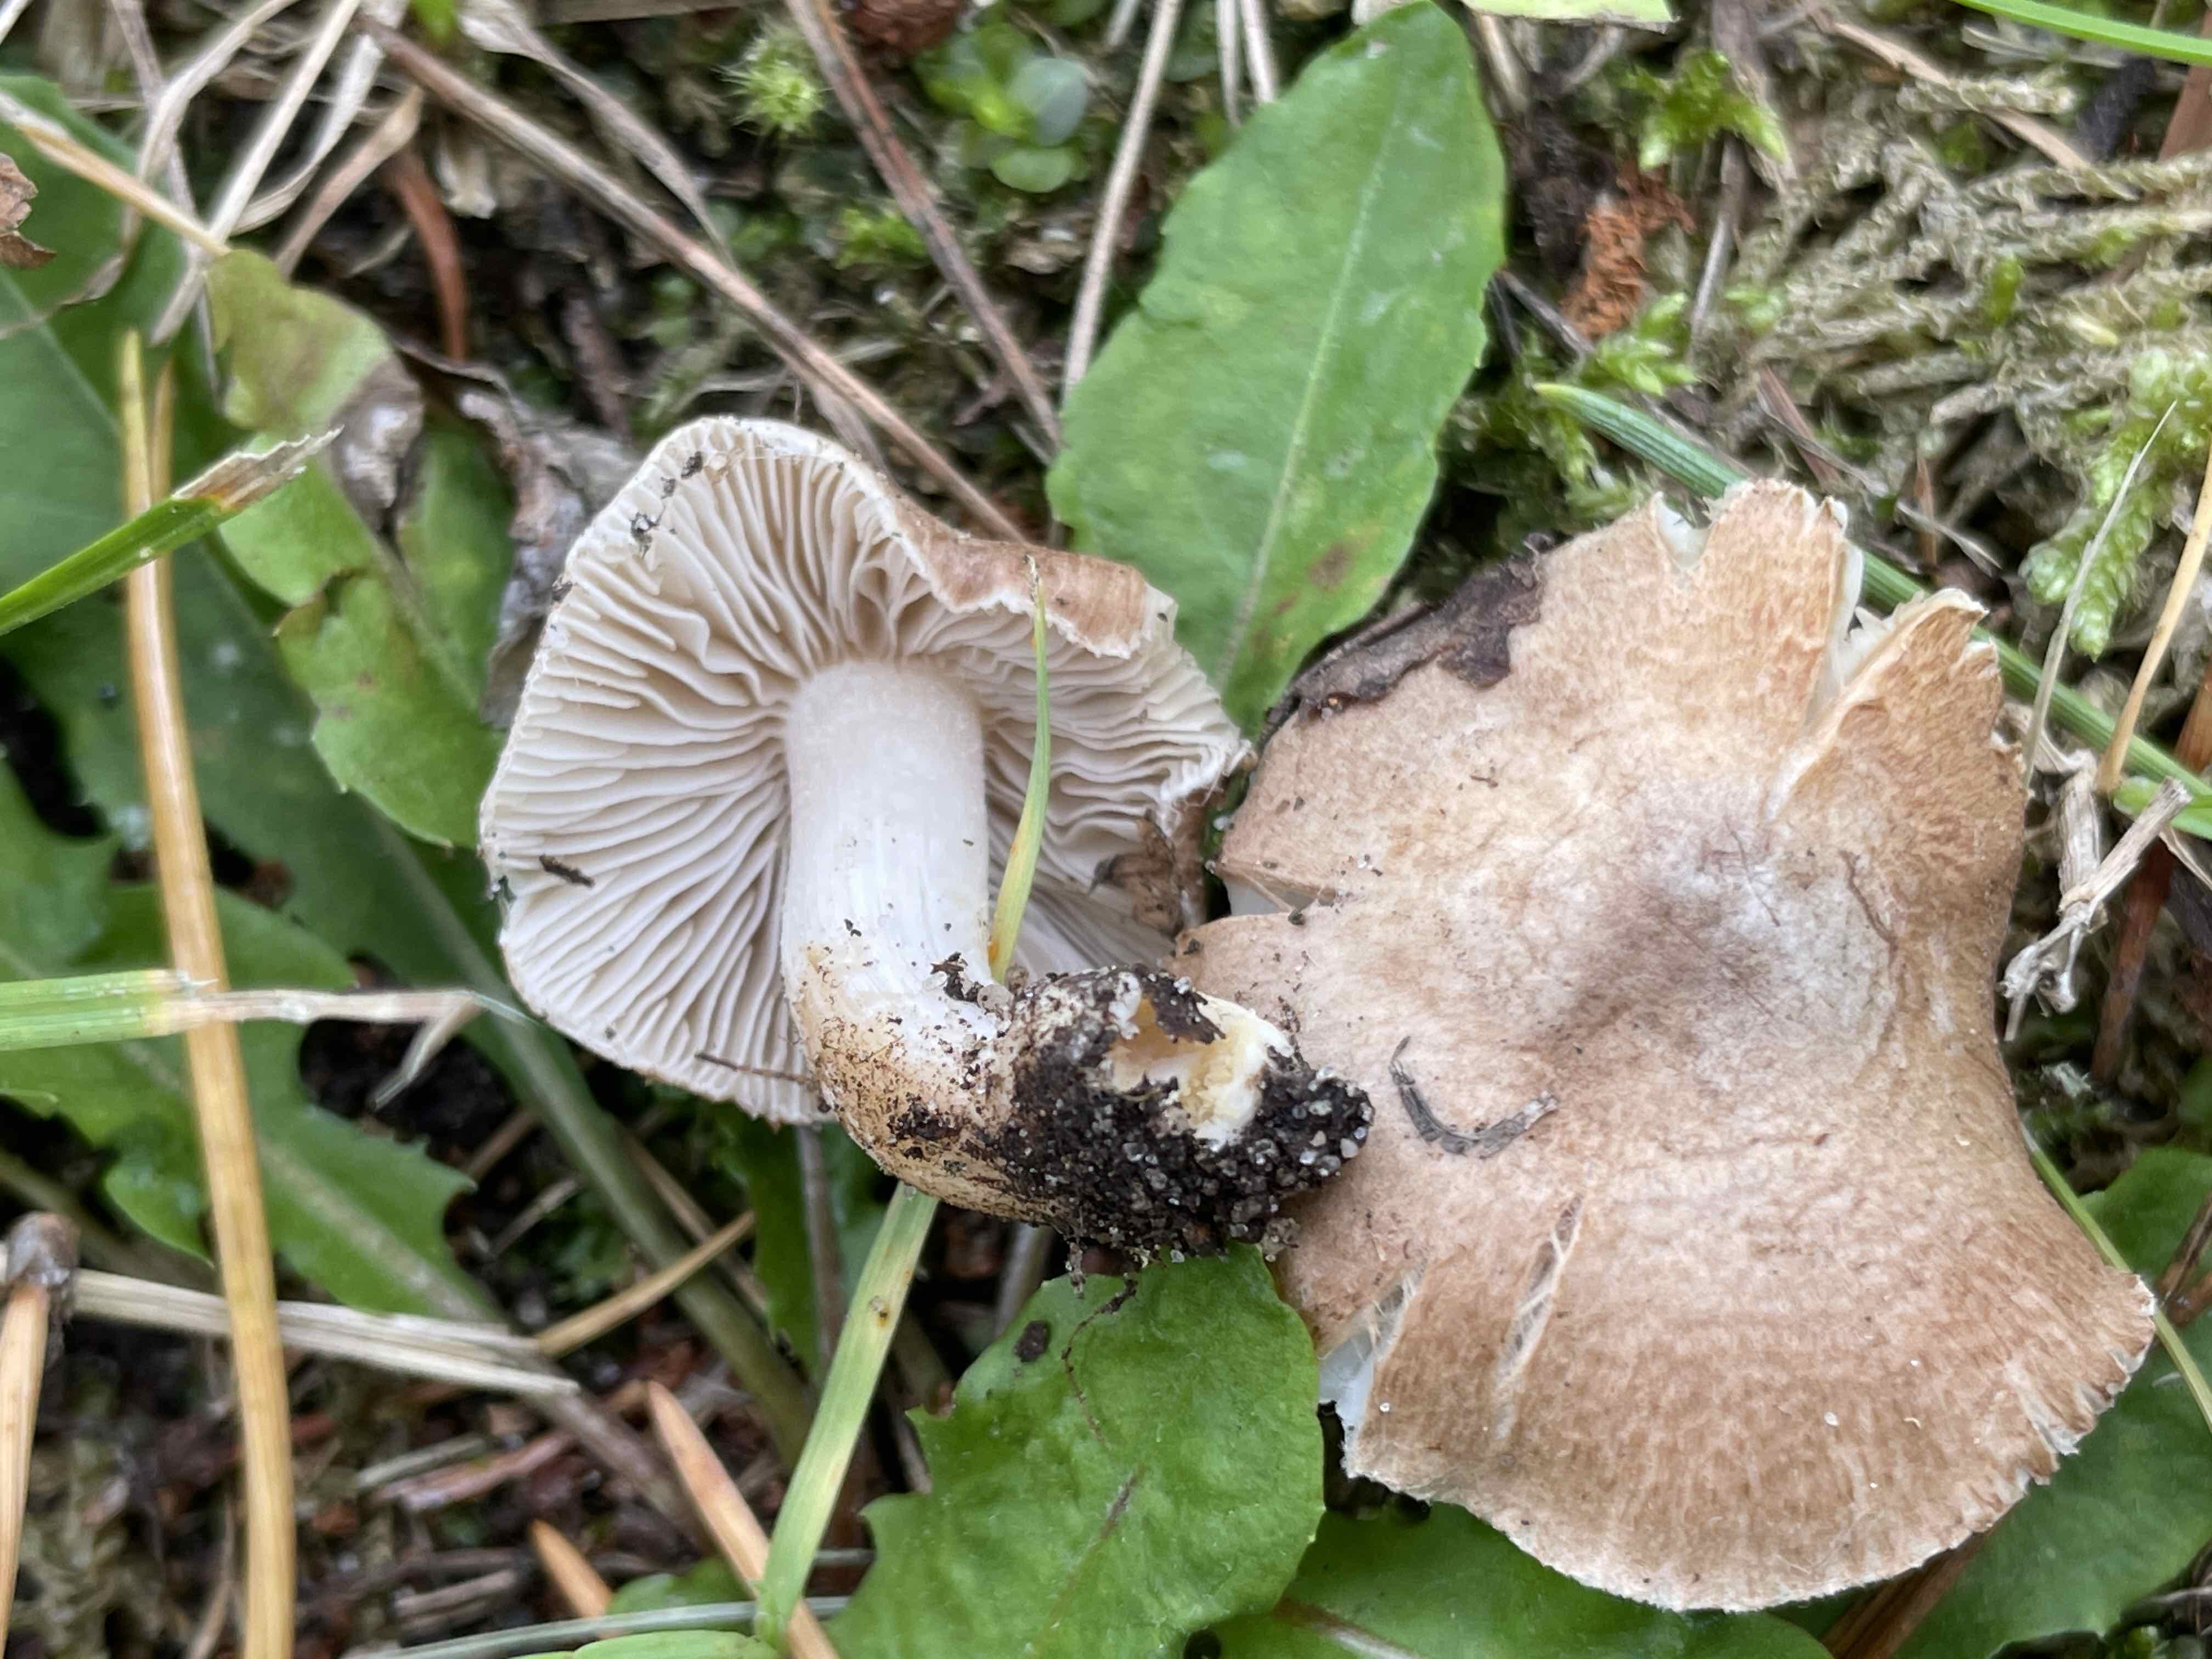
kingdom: Fungi
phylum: Basidiomycota
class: Agaricomycetes
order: Agaricales
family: Tricholomataceae
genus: Tricholoma
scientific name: Tricholoma terreum
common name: jordfarvet ridderhat
